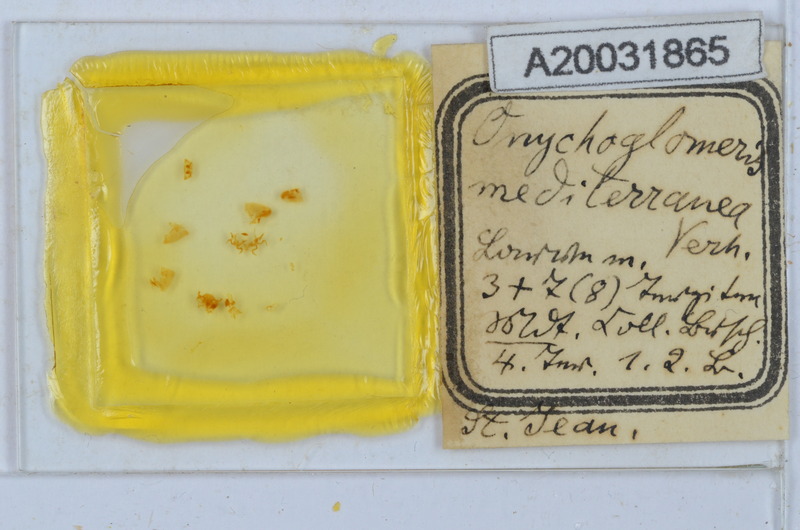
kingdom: Animalia
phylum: Arthropoda
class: Diplopoda
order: Glomerida
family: Glomeridae
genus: Onychoglomeris
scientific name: Onychoglomeris castanea
